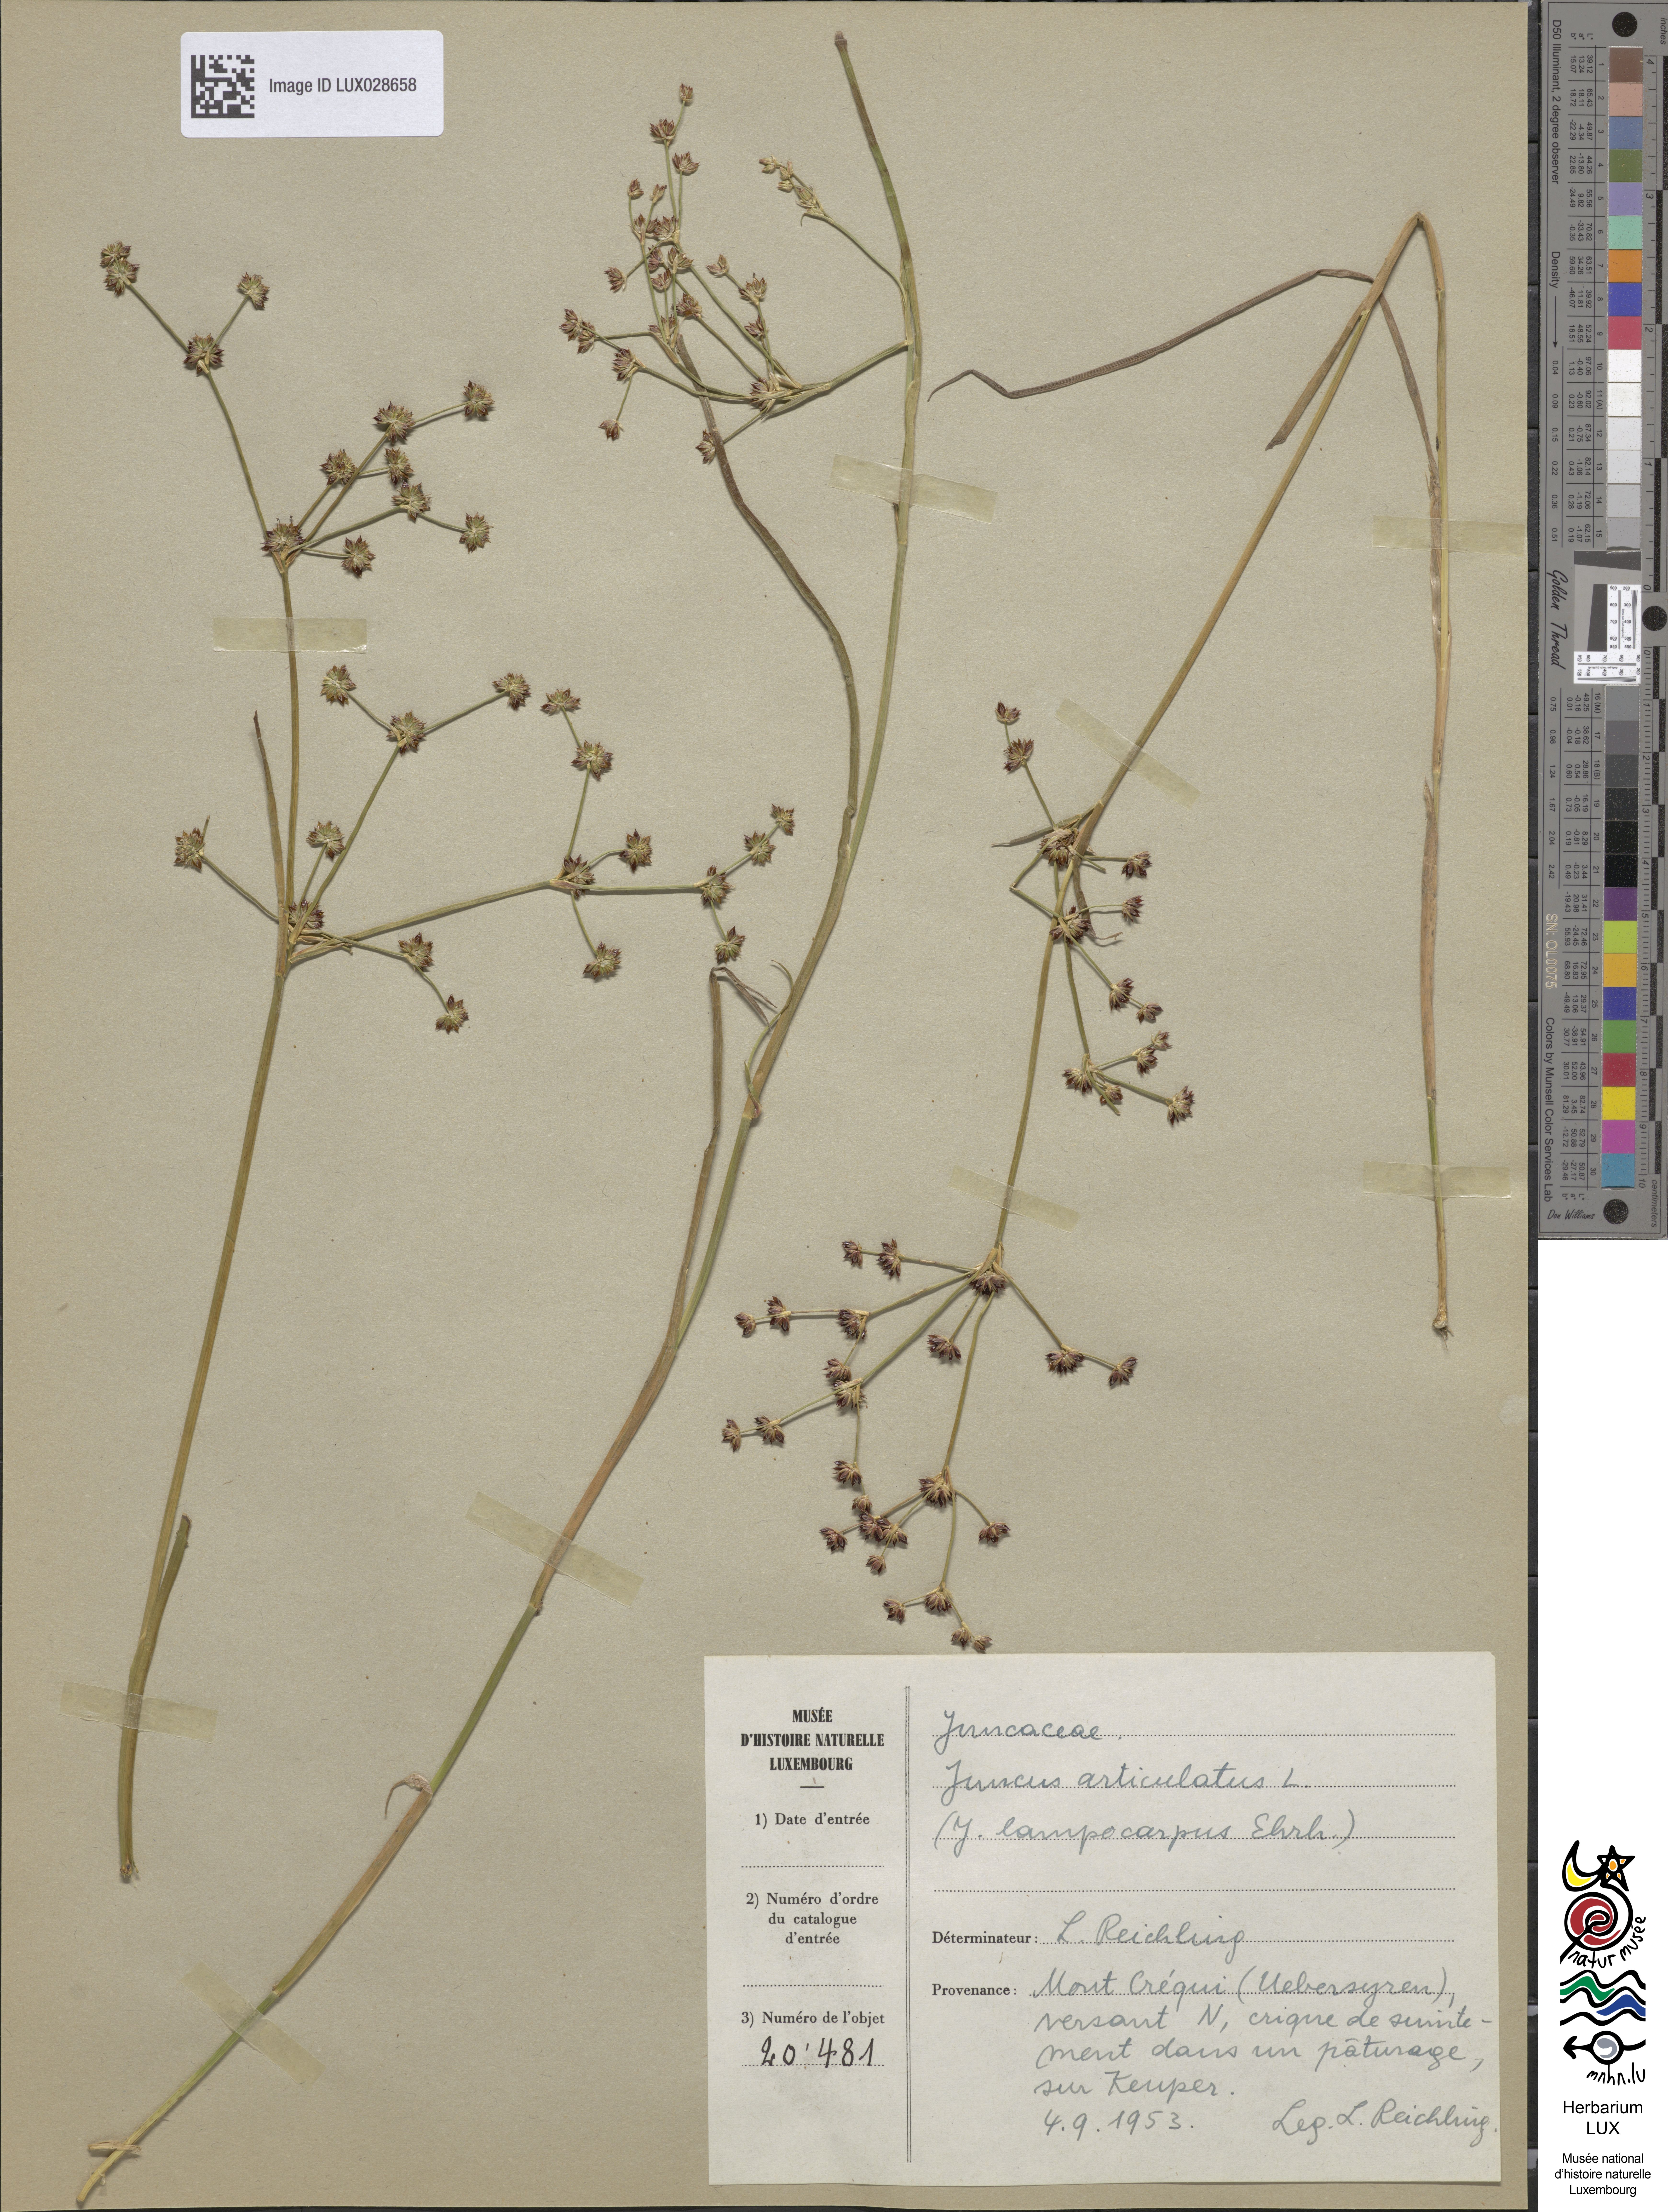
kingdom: Plantae
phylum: Tracheophyta
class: Liliopsida
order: Poales
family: Juncaceae
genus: Juncus
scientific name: Juncus articulatus
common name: Jointed rush
